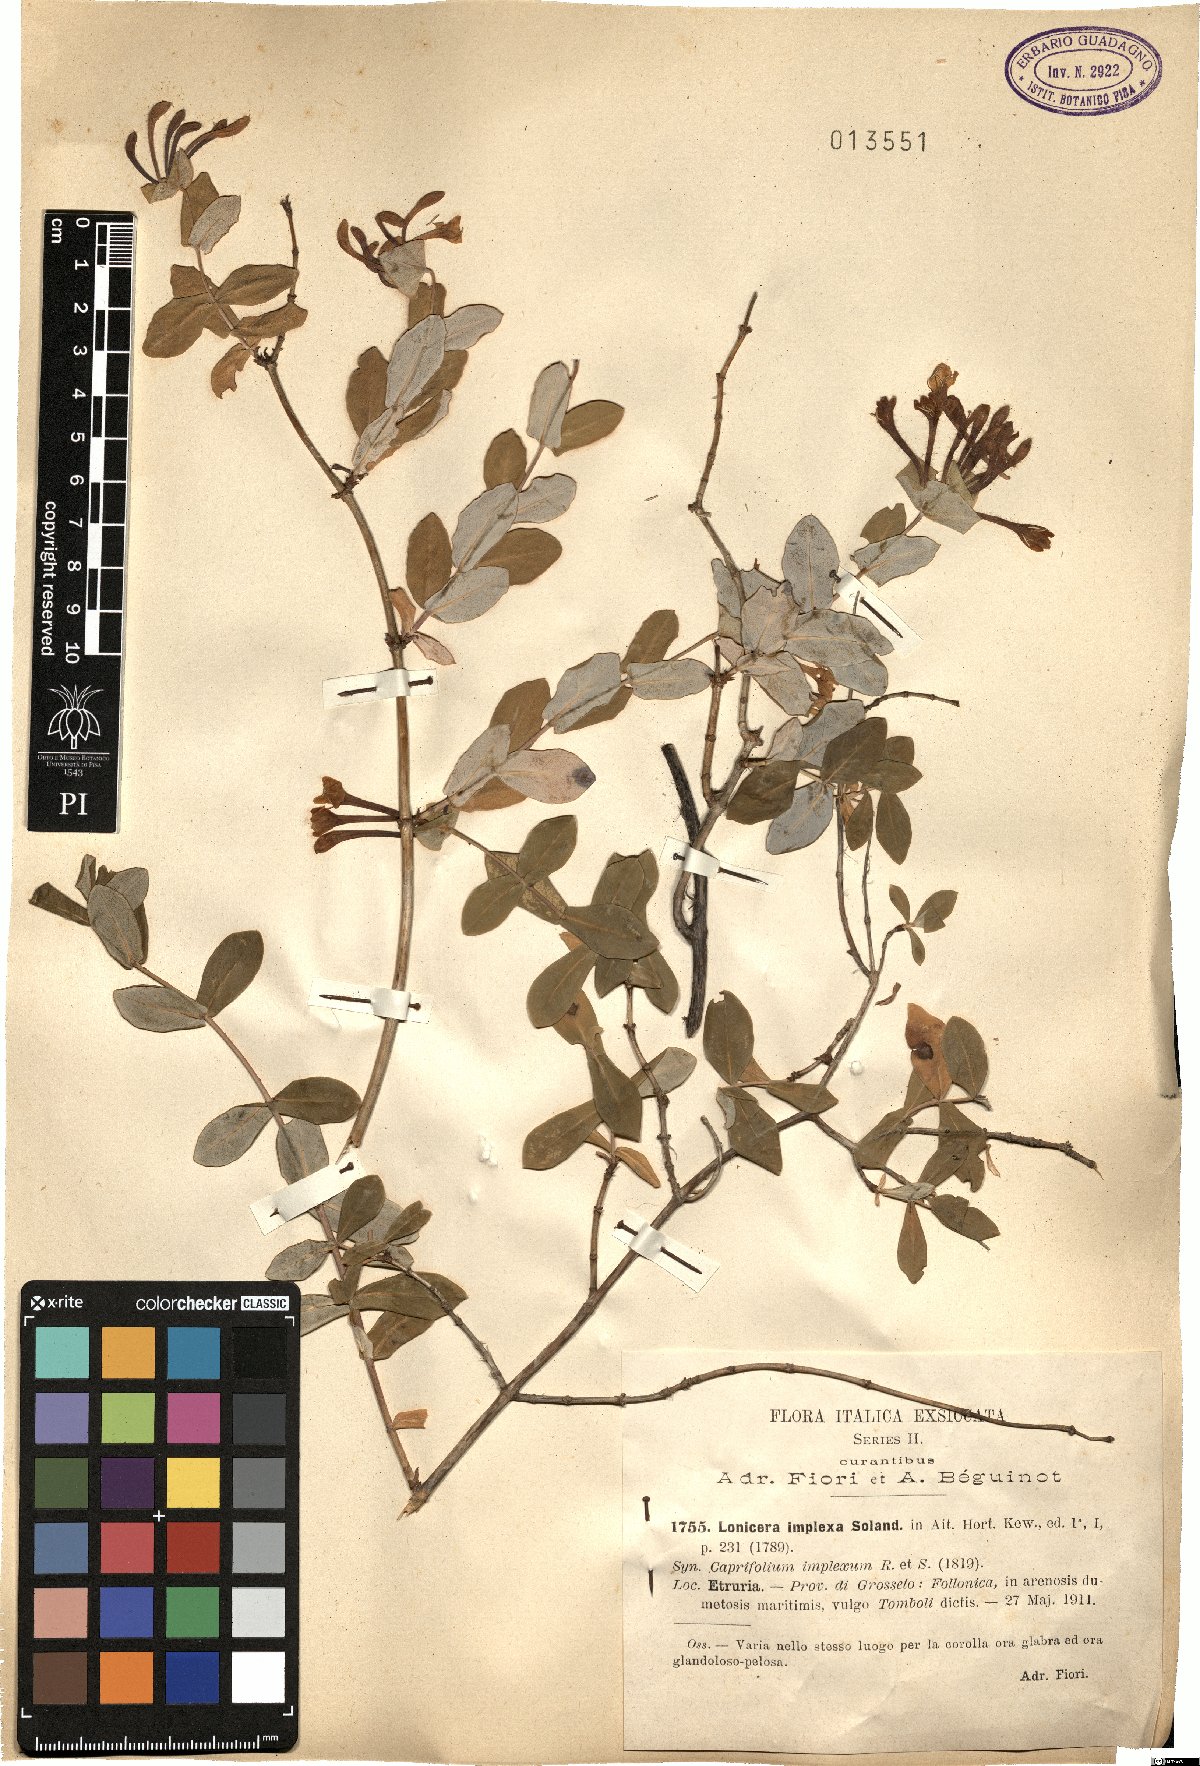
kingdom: Plantae
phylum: Tracheophyta
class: Magnoliopsida
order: Dipsacales
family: Caprifoliaceae
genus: Lonicera
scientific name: Lonicera implexa
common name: Minorca honeysuckle
